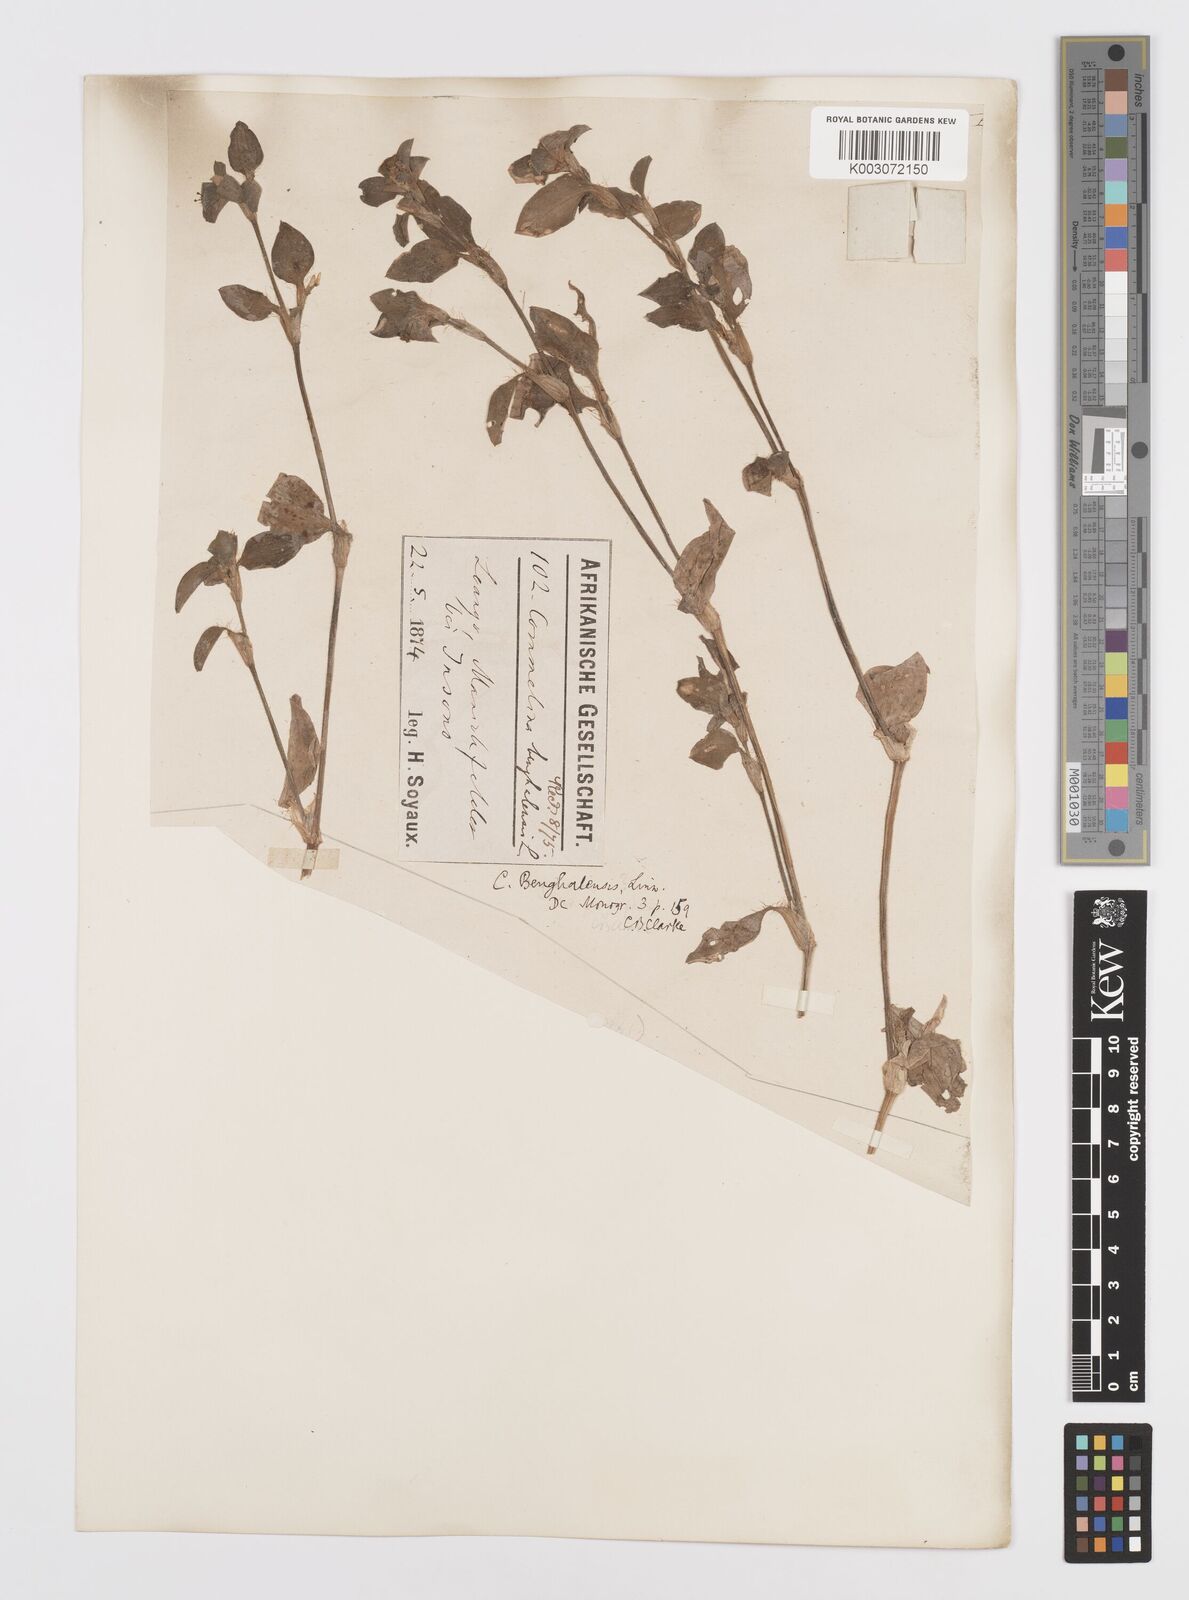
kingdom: Plantae
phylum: Tracheophyta
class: Liliopsida
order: Commelinales
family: Commelinaceae
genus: Commelina
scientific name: Commelina benghalensis
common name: Jio
